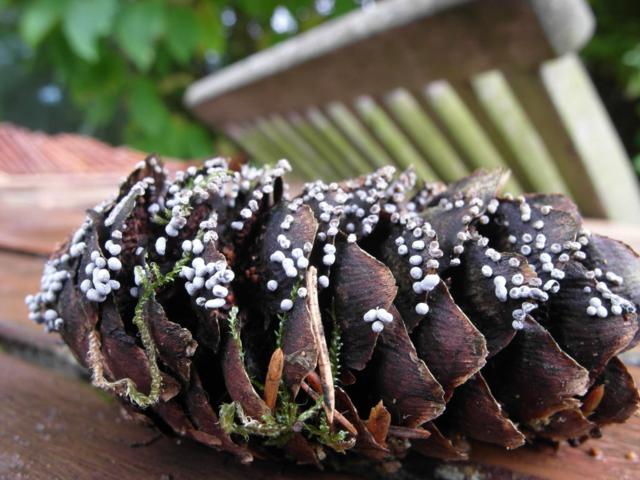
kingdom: Protozoa
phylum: Mycetozoa
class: Myxomycetes
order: Physarales
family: Didymiaceae
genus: Didymium
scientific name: Didymium melanospermum
